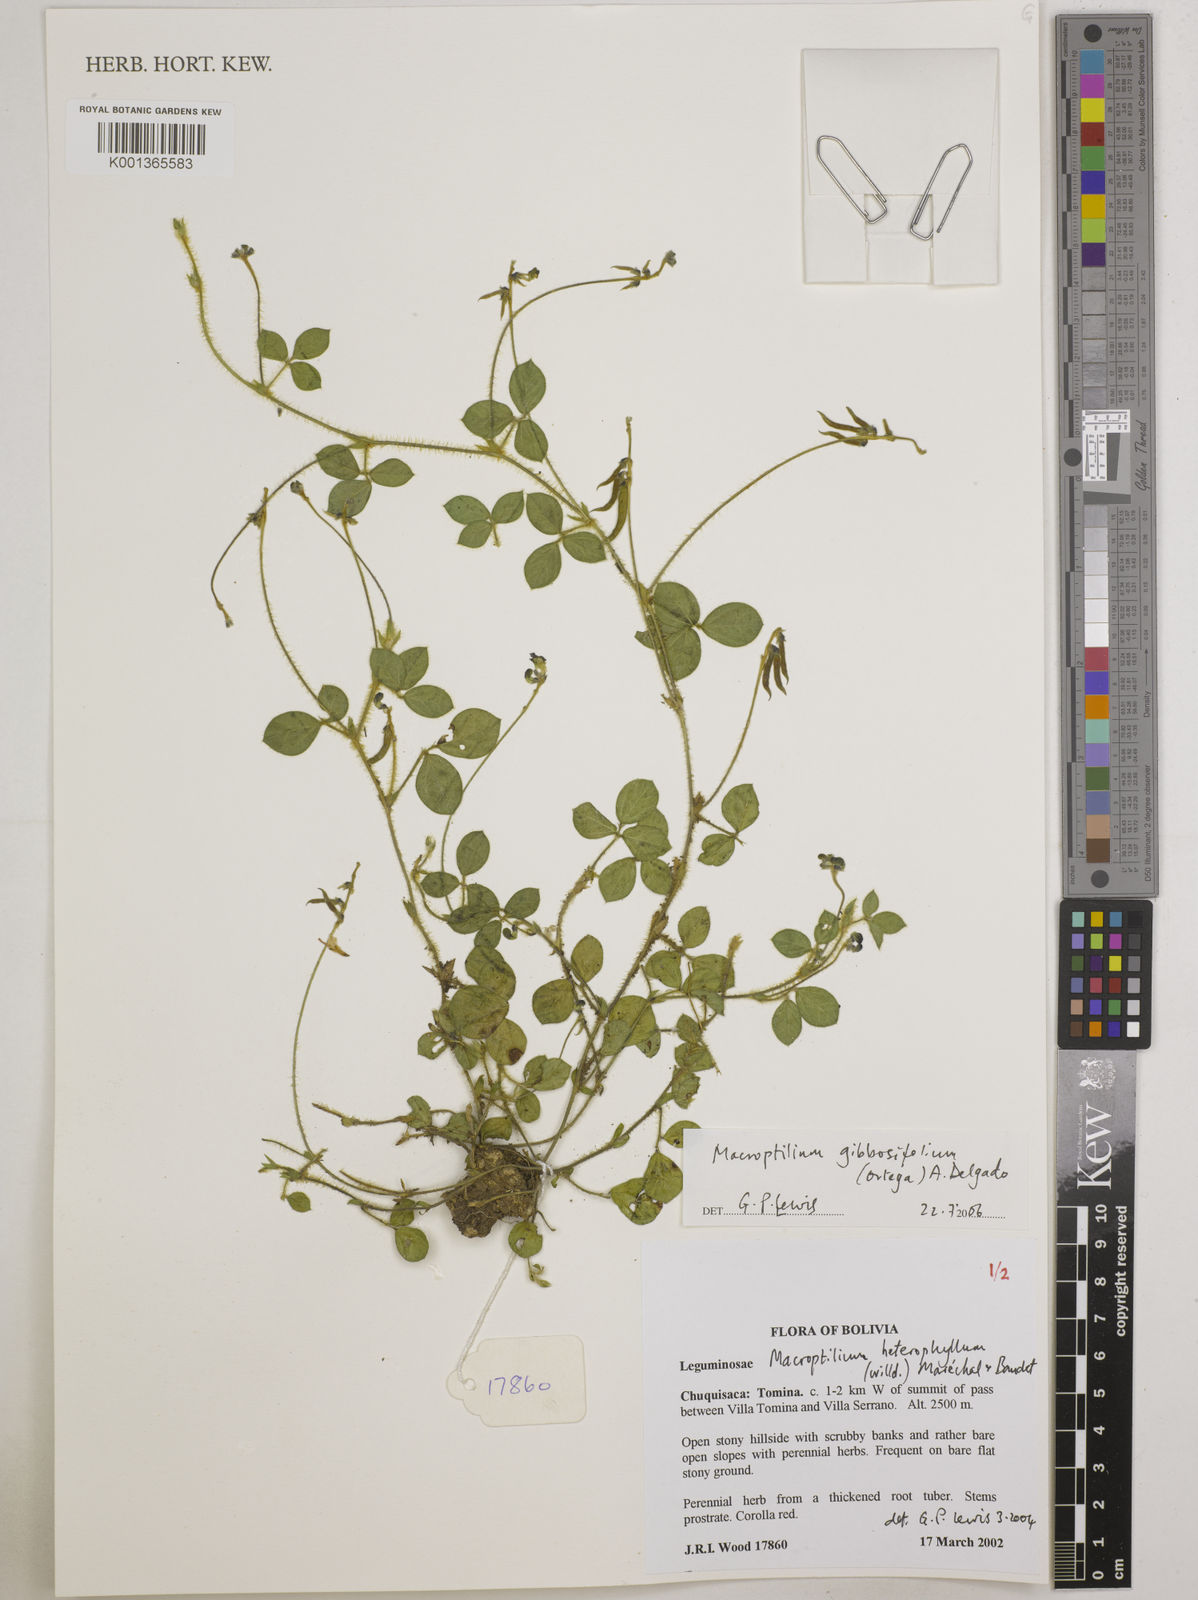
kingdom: Plantae
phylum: Tracheophyta
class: Magnoliopsida
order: Fabales
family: Fabaceae
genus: Macroptilium
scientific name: Macroptilium gibbosifolium
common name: Variableleaf bushbean
